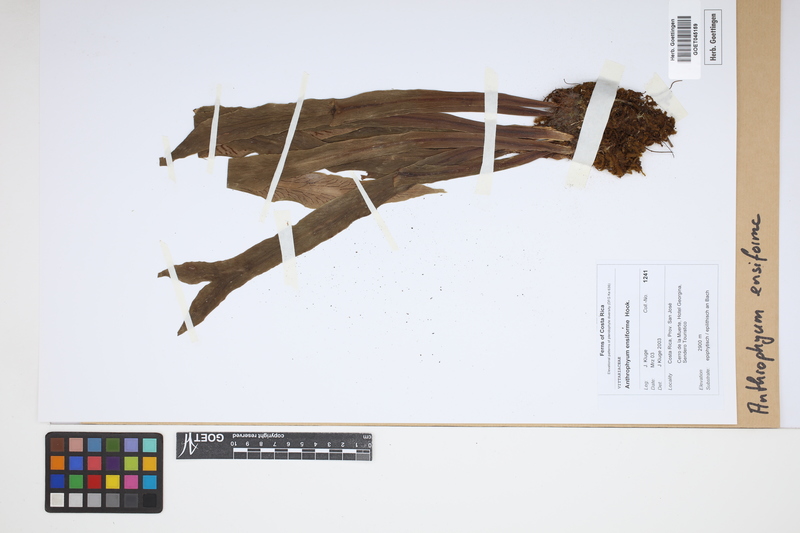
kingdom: Plantae
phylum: Tracheophyta
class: Polypodiopsida
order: Polypodiales
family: Pteridaceae
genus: Scoliosorus
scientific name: Scoliosorus ensiformis
